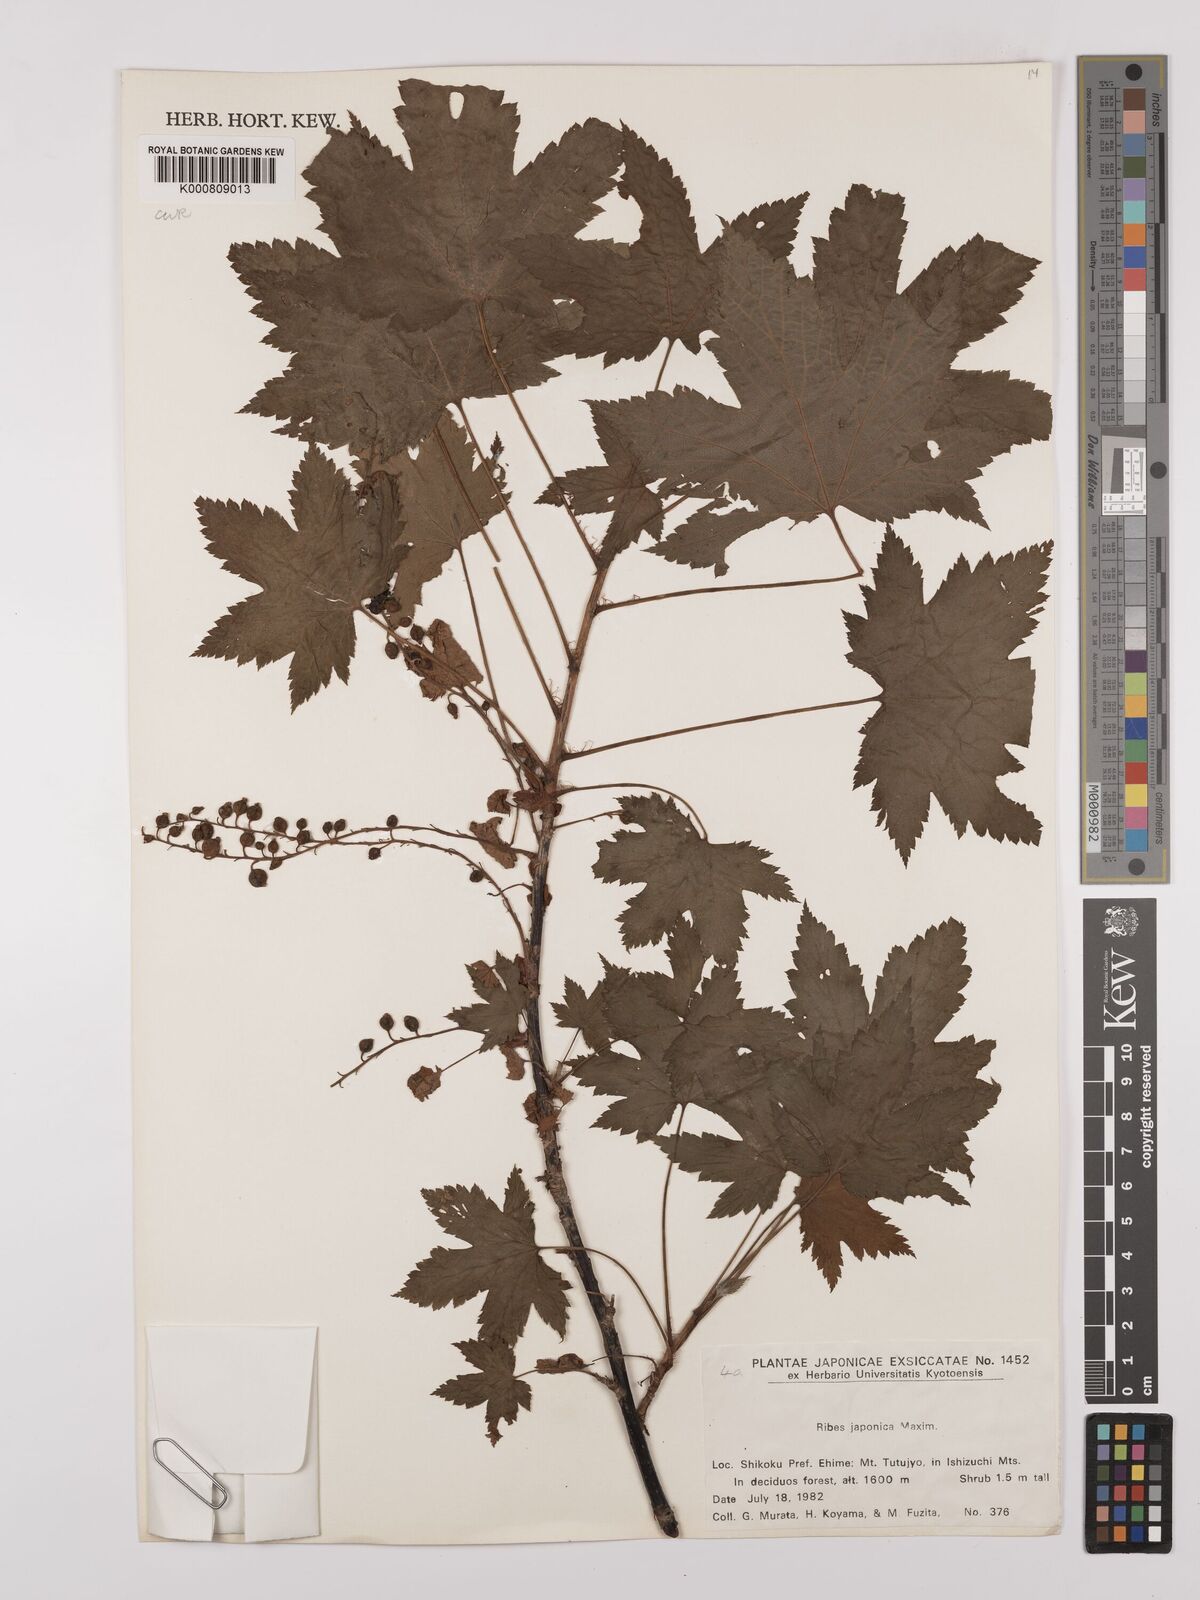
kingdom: Plantae
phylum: Tracheophyta
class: Magnoliopsida
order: Saxifragales
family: Grossulariaceae
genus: Ribes
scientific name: Ribes japonicum
